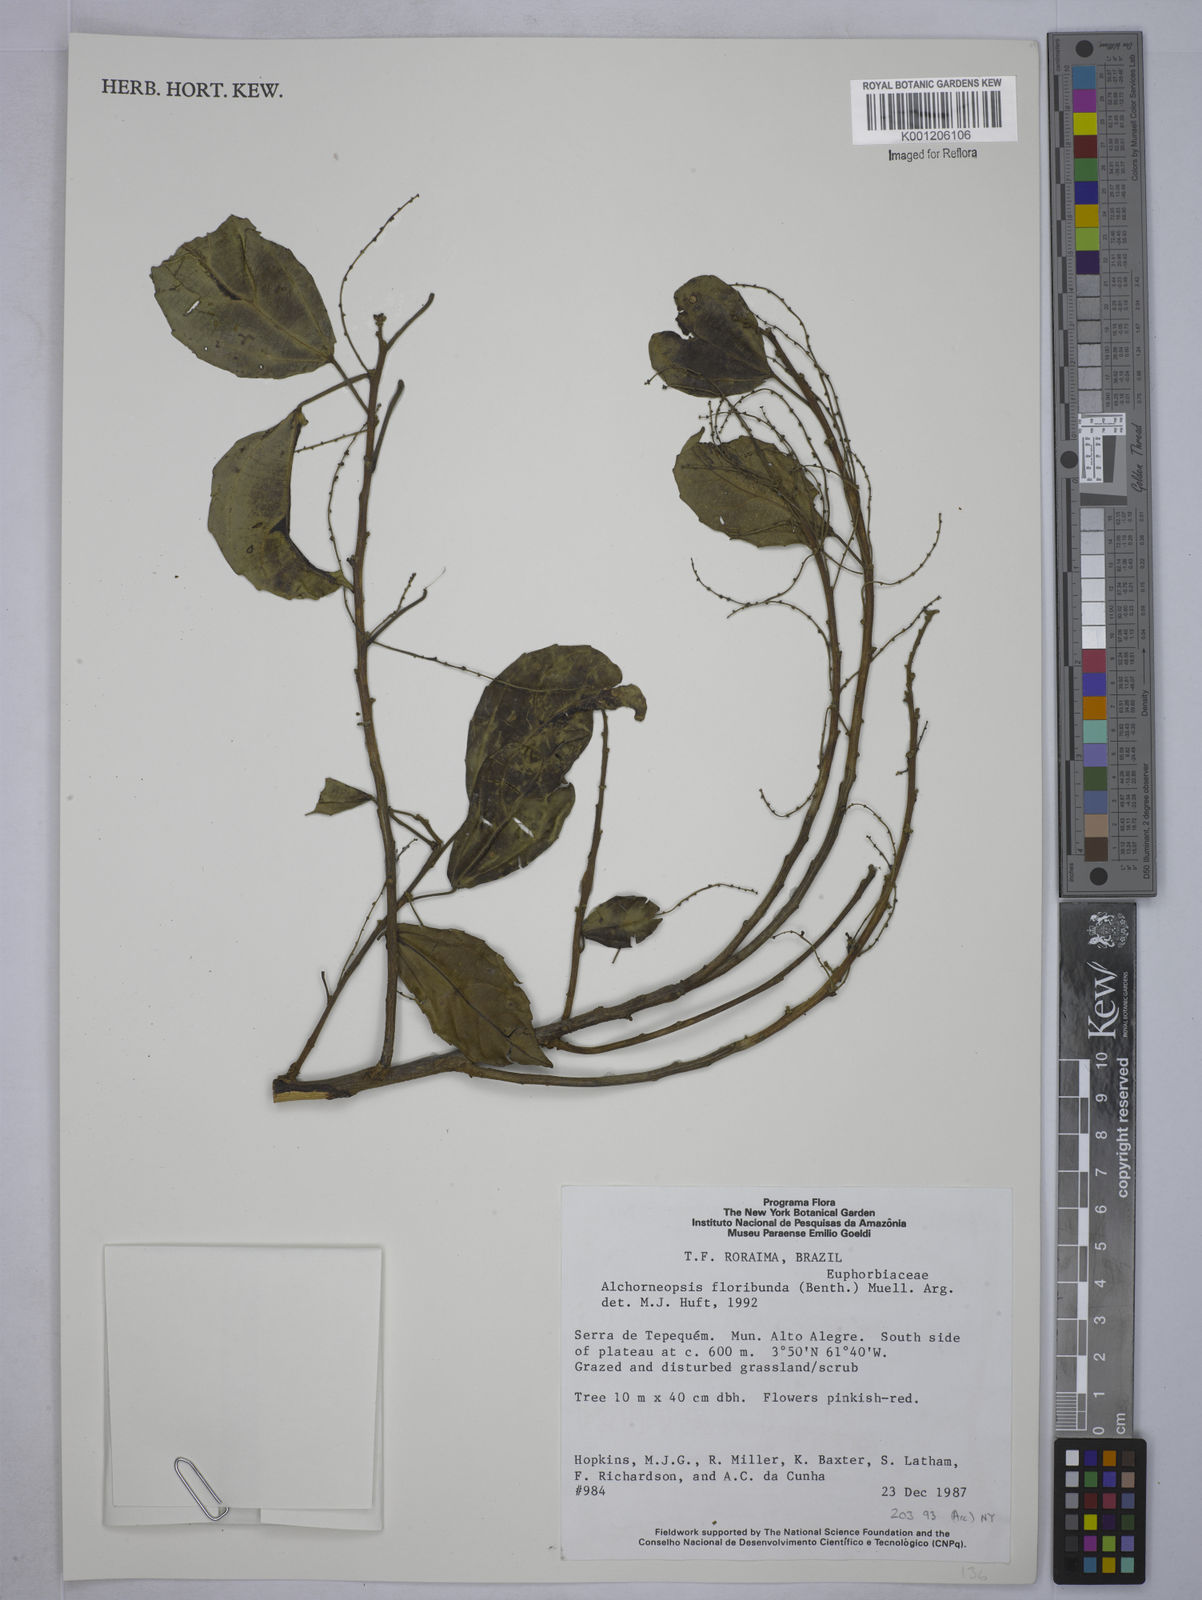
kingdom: Plantae
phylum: Tracheophyta
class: Magnoliopsida
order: Malpighiales
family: Euphorbiaceae
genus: Alchorneopsis
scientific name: Alchorneopsis
